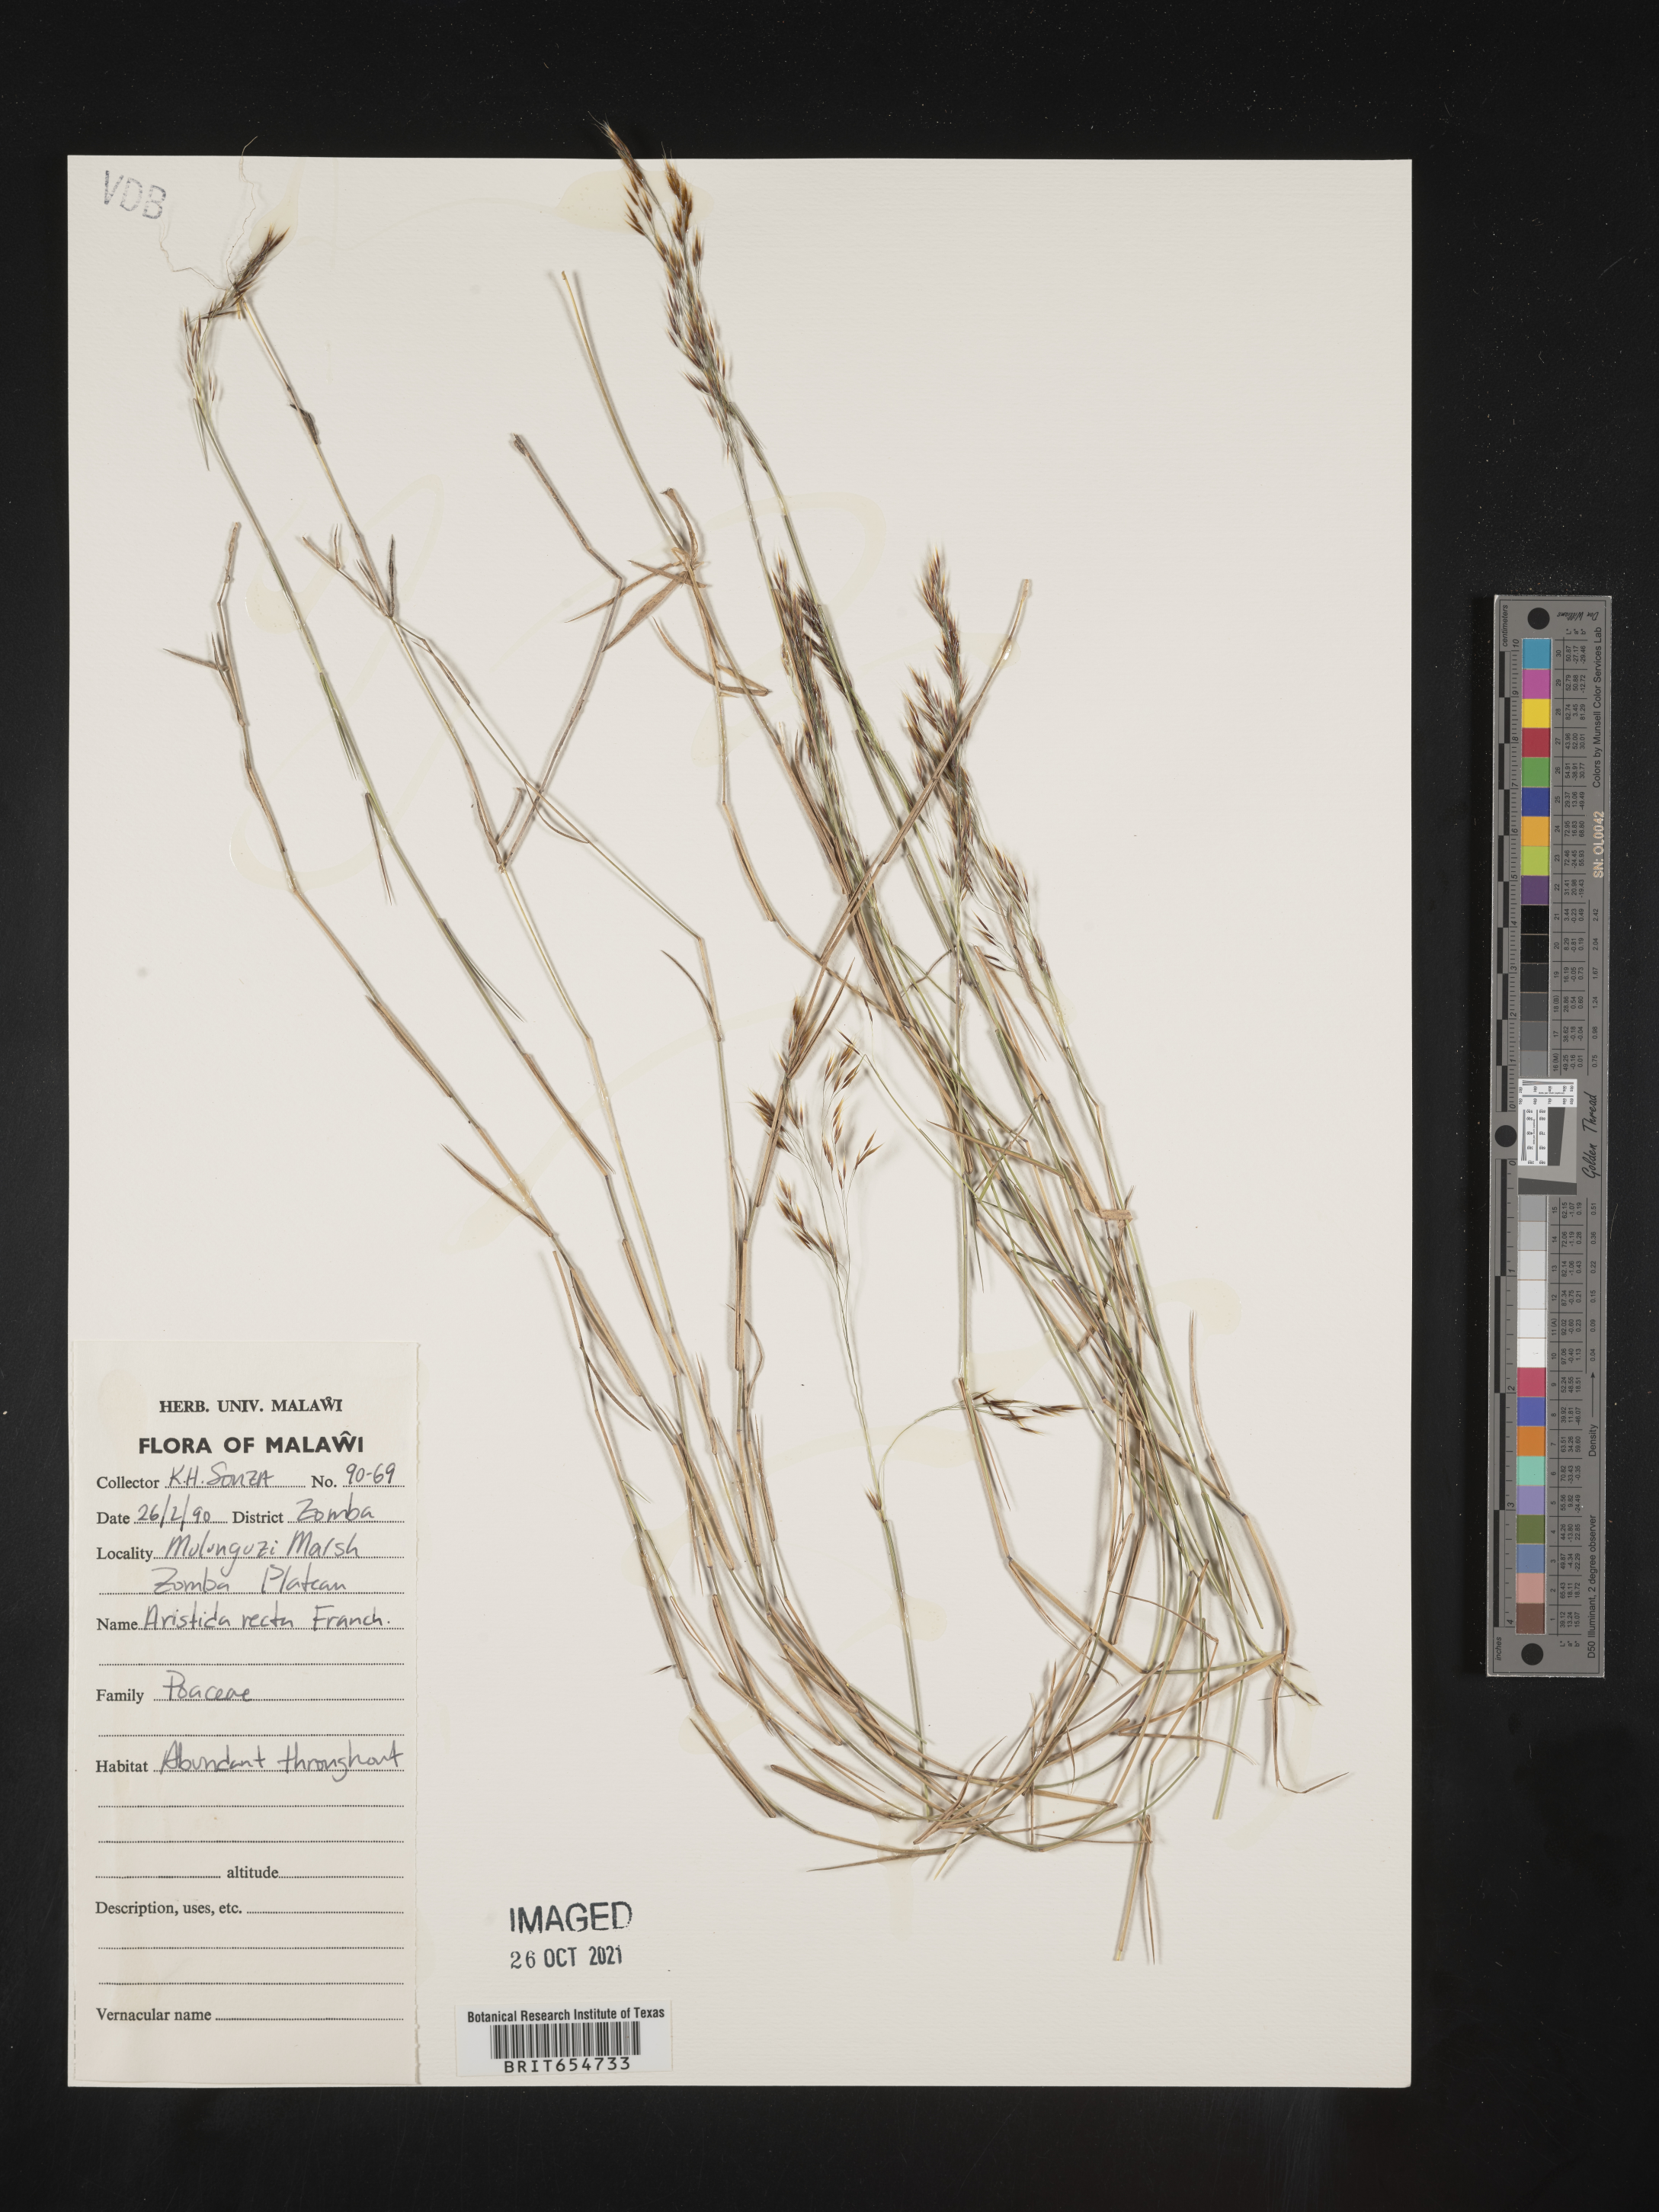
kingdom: Plantae
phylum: Tracheophyta
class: Liliopsida
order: Poales
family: Poaceae
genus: Aristida
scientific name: Aristida
